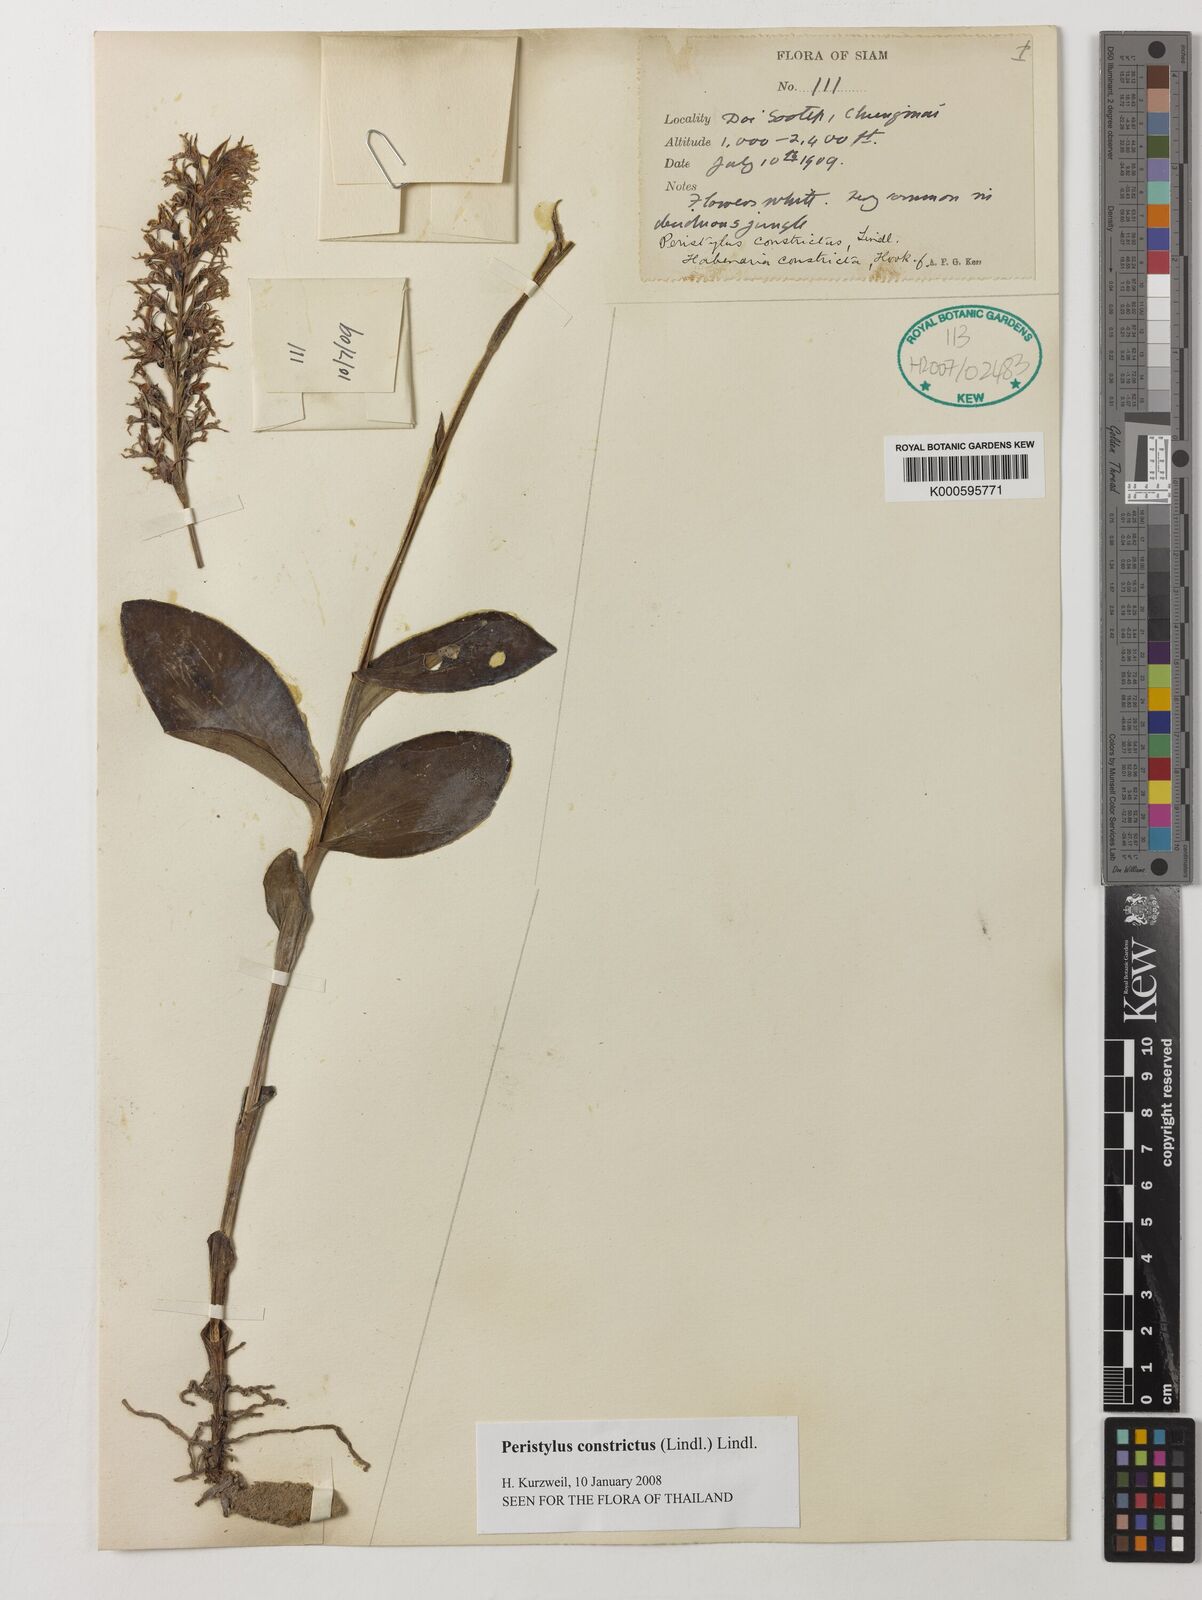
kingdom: Plantae
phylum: Tracheophyta
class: Liliopsida
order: Asparagales
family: Orchidaceae
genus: Peristylus
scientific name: Peristylus constrictus
